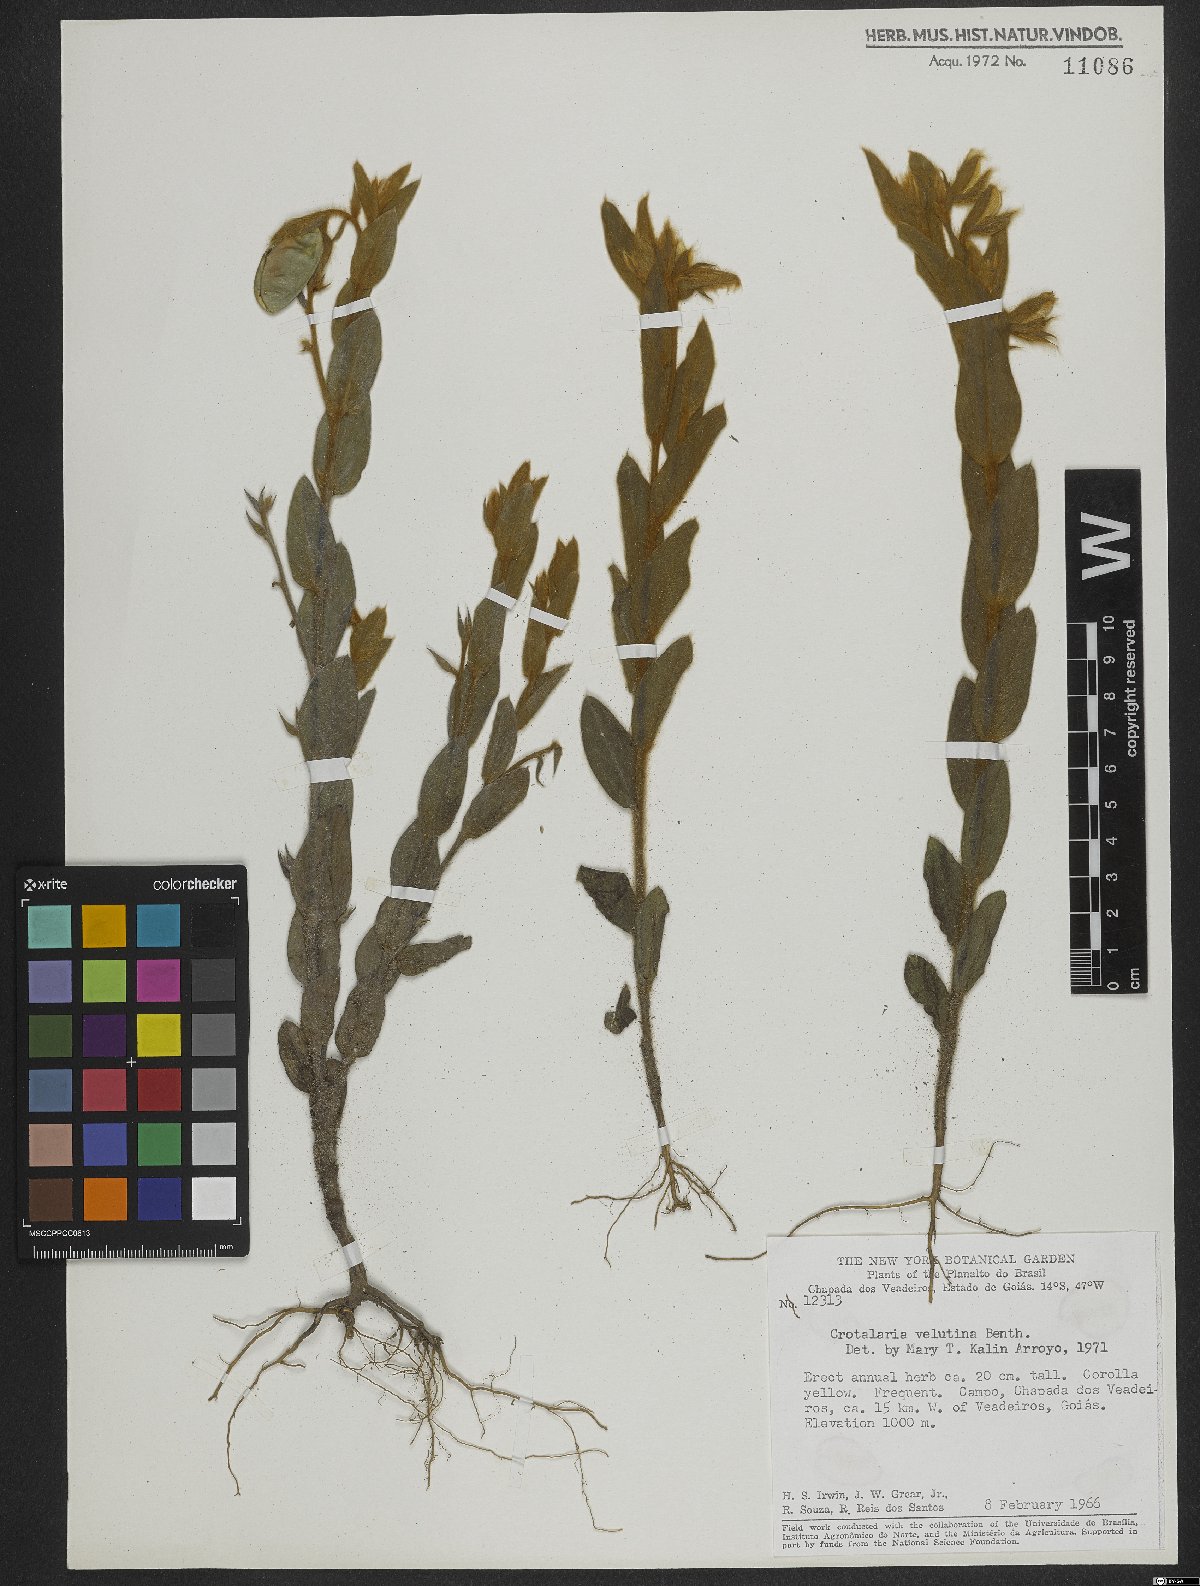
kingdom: Plantae
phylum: Tracheophyta
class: Magnoliopsida
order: Fabales
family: Fabaceae
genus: Crotalaria
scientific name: Crotalaria velutina
